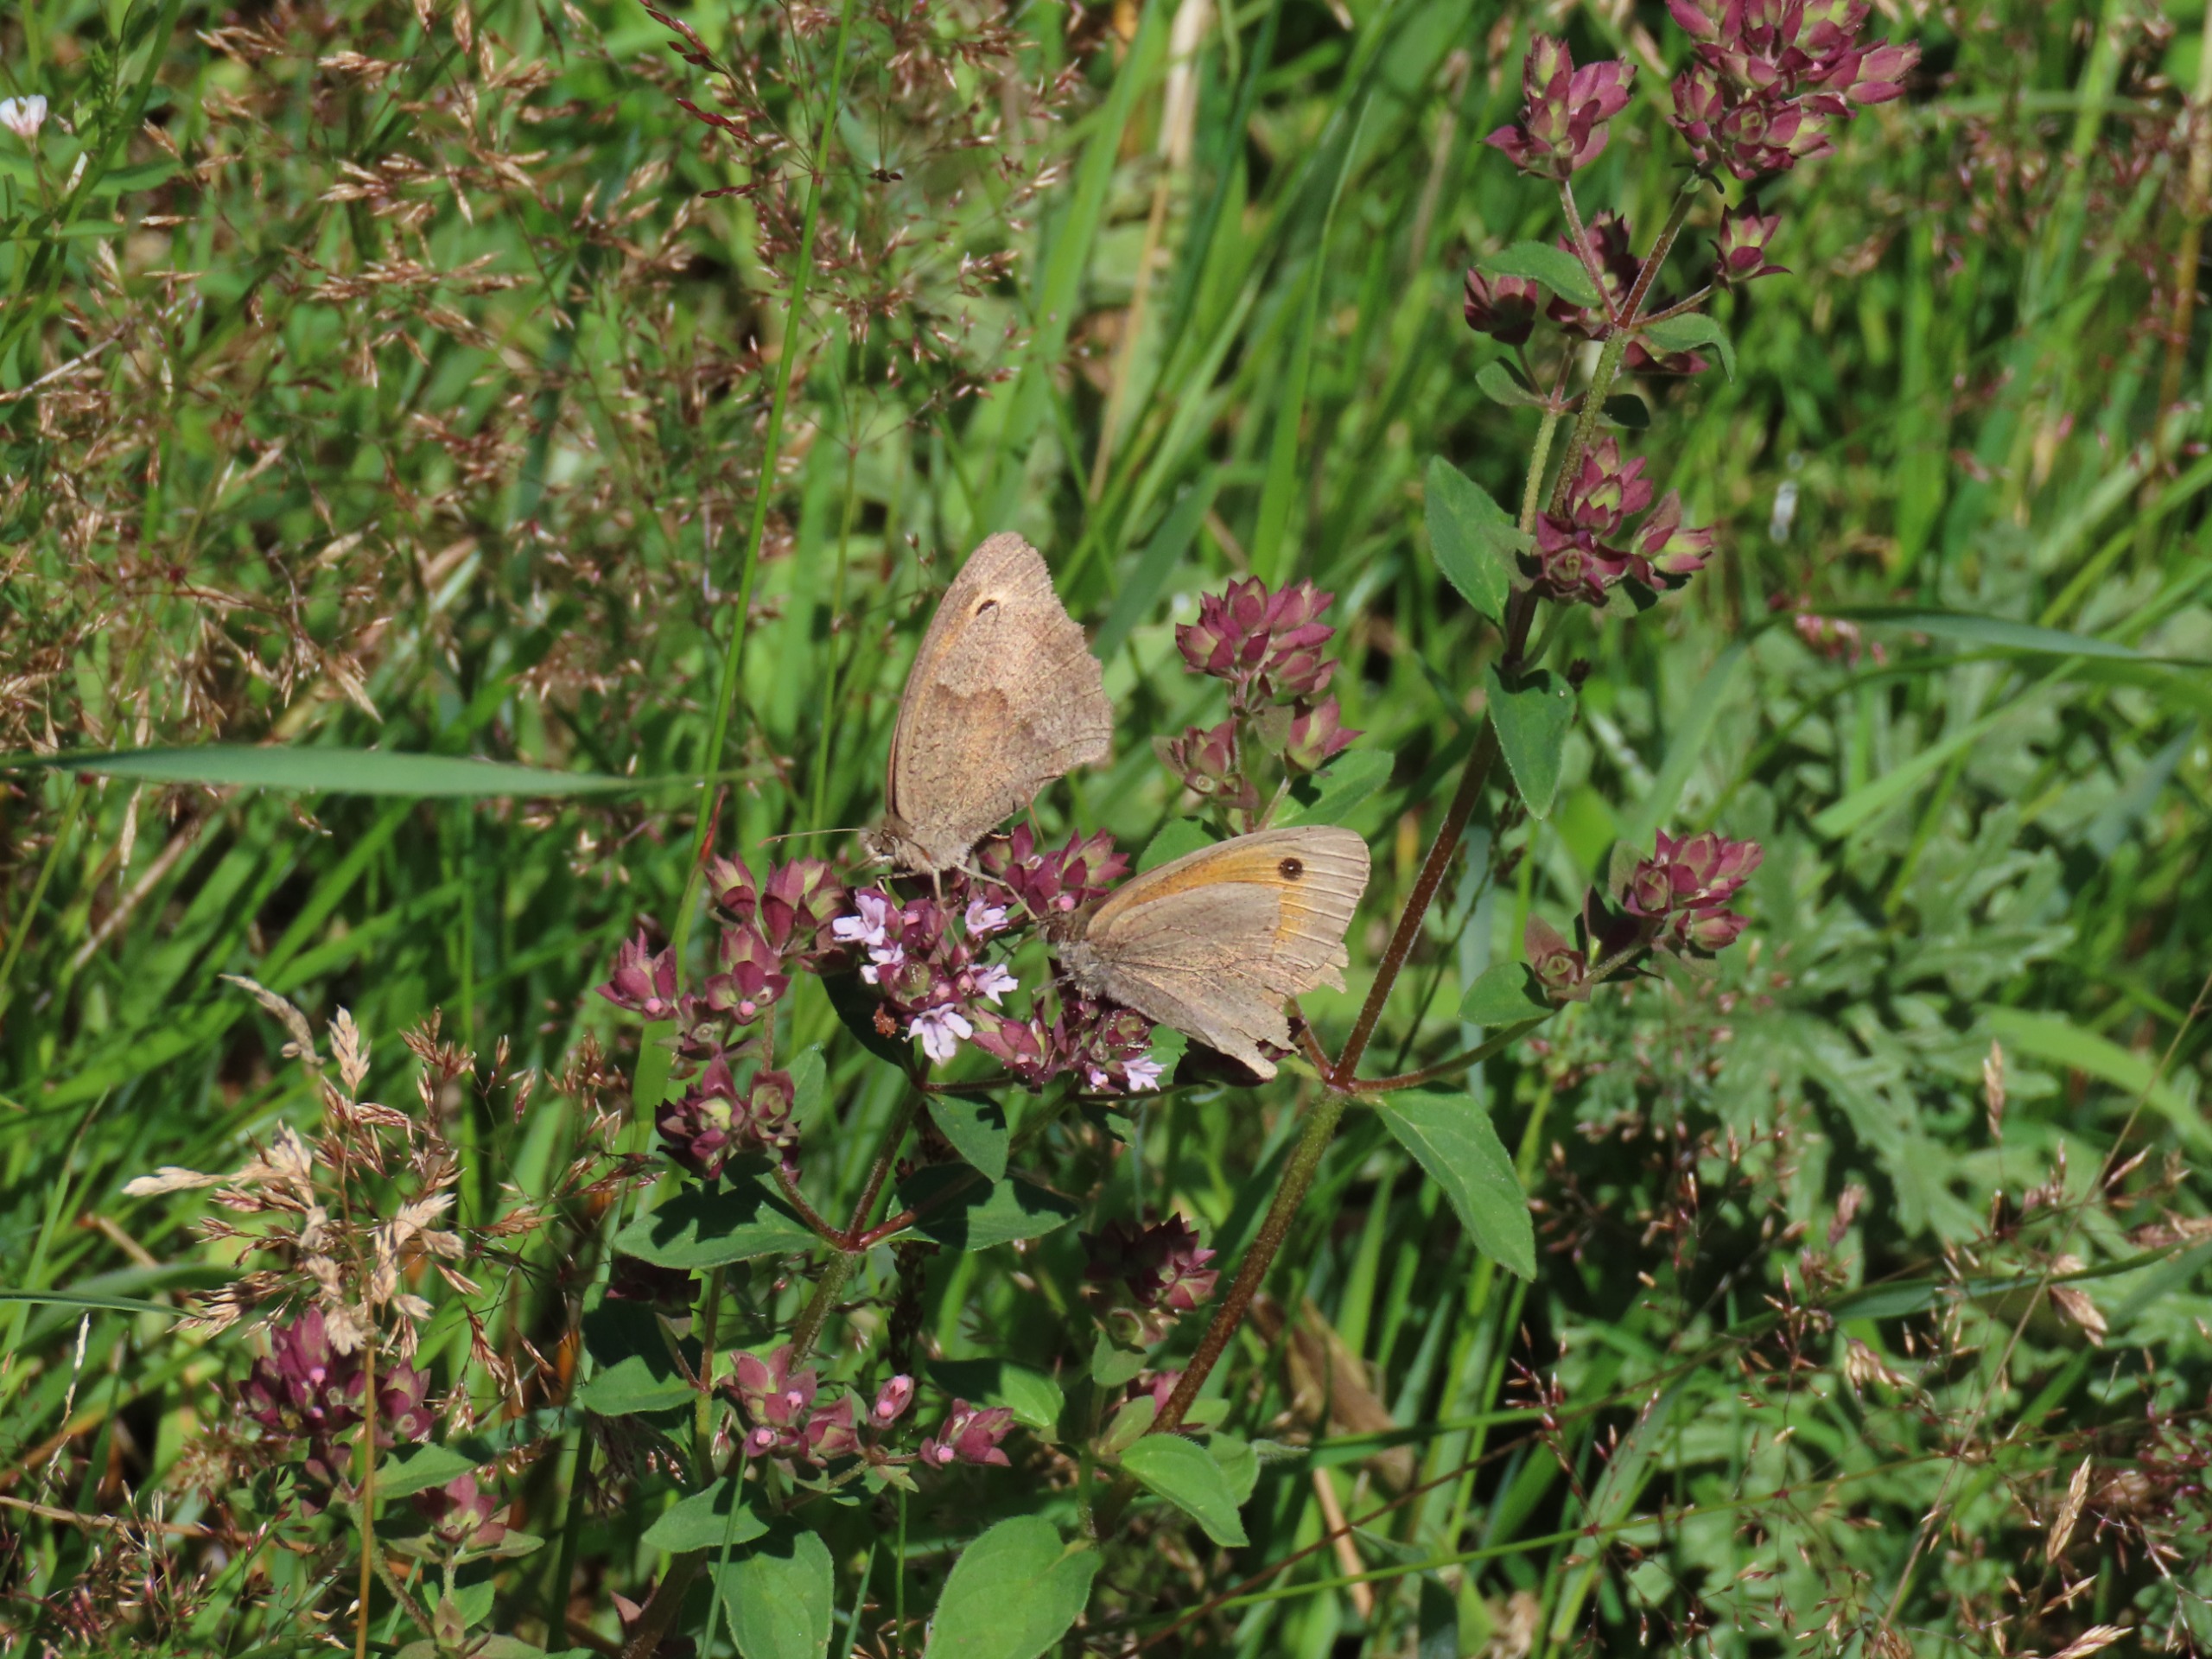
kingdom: Animalia
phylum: Arthropoda
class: Insecta
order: Lepidoptera
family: Nymphalidae
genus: Maniola
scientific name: Maniola jurtina
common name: Græsrandøje
